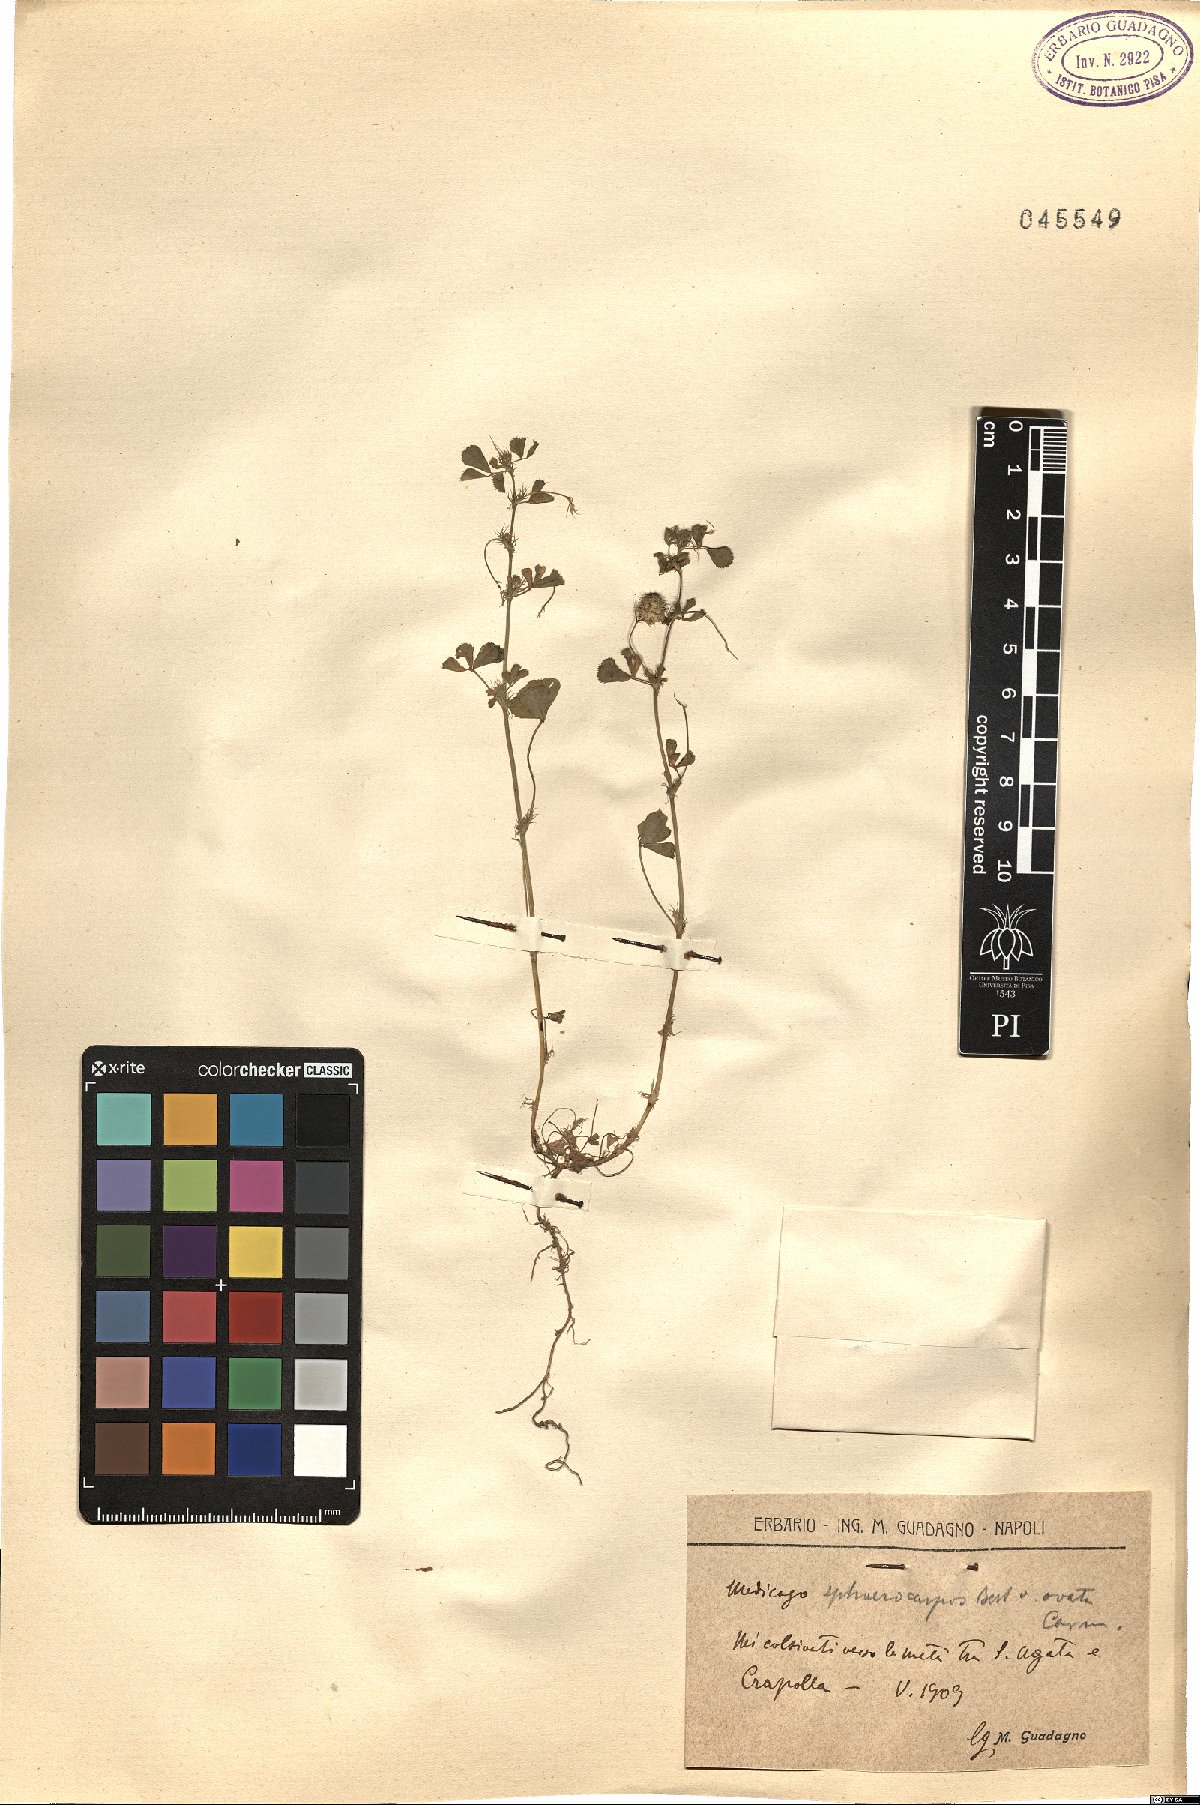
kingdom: Plantae
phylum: Tracheophyta
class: Magnoliopsida
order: Fabales
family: Fabaceae
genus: Medicago
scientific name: Medicago sphaerocarpos
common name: Sphere medic
